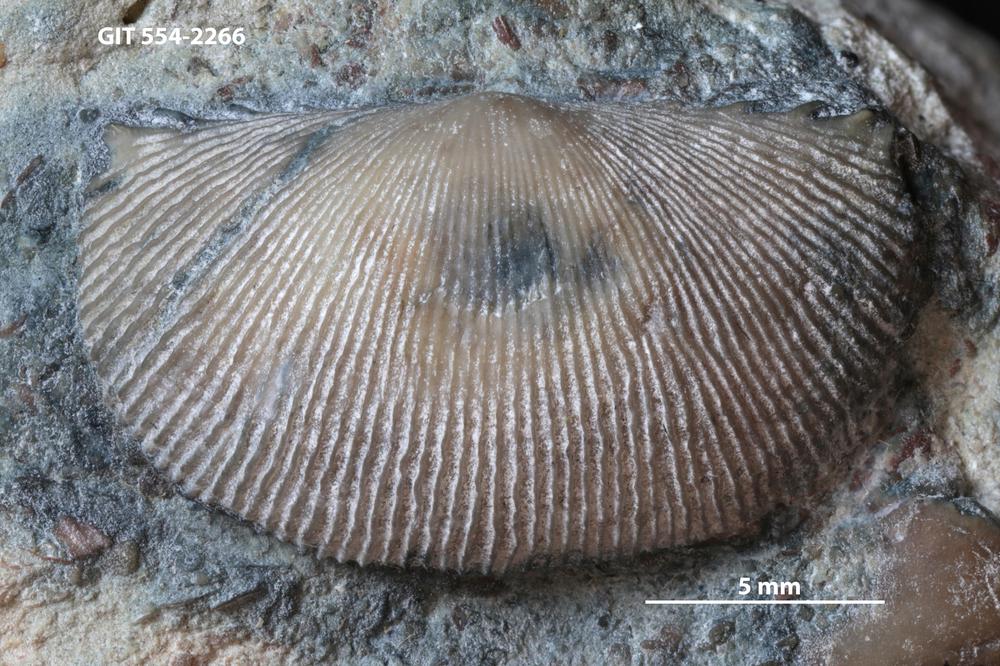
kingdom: Animalia
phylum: Brachiopoda
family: Strophochonetidae
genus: Protochonetes
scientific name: Protochonetes Orthis striatella
